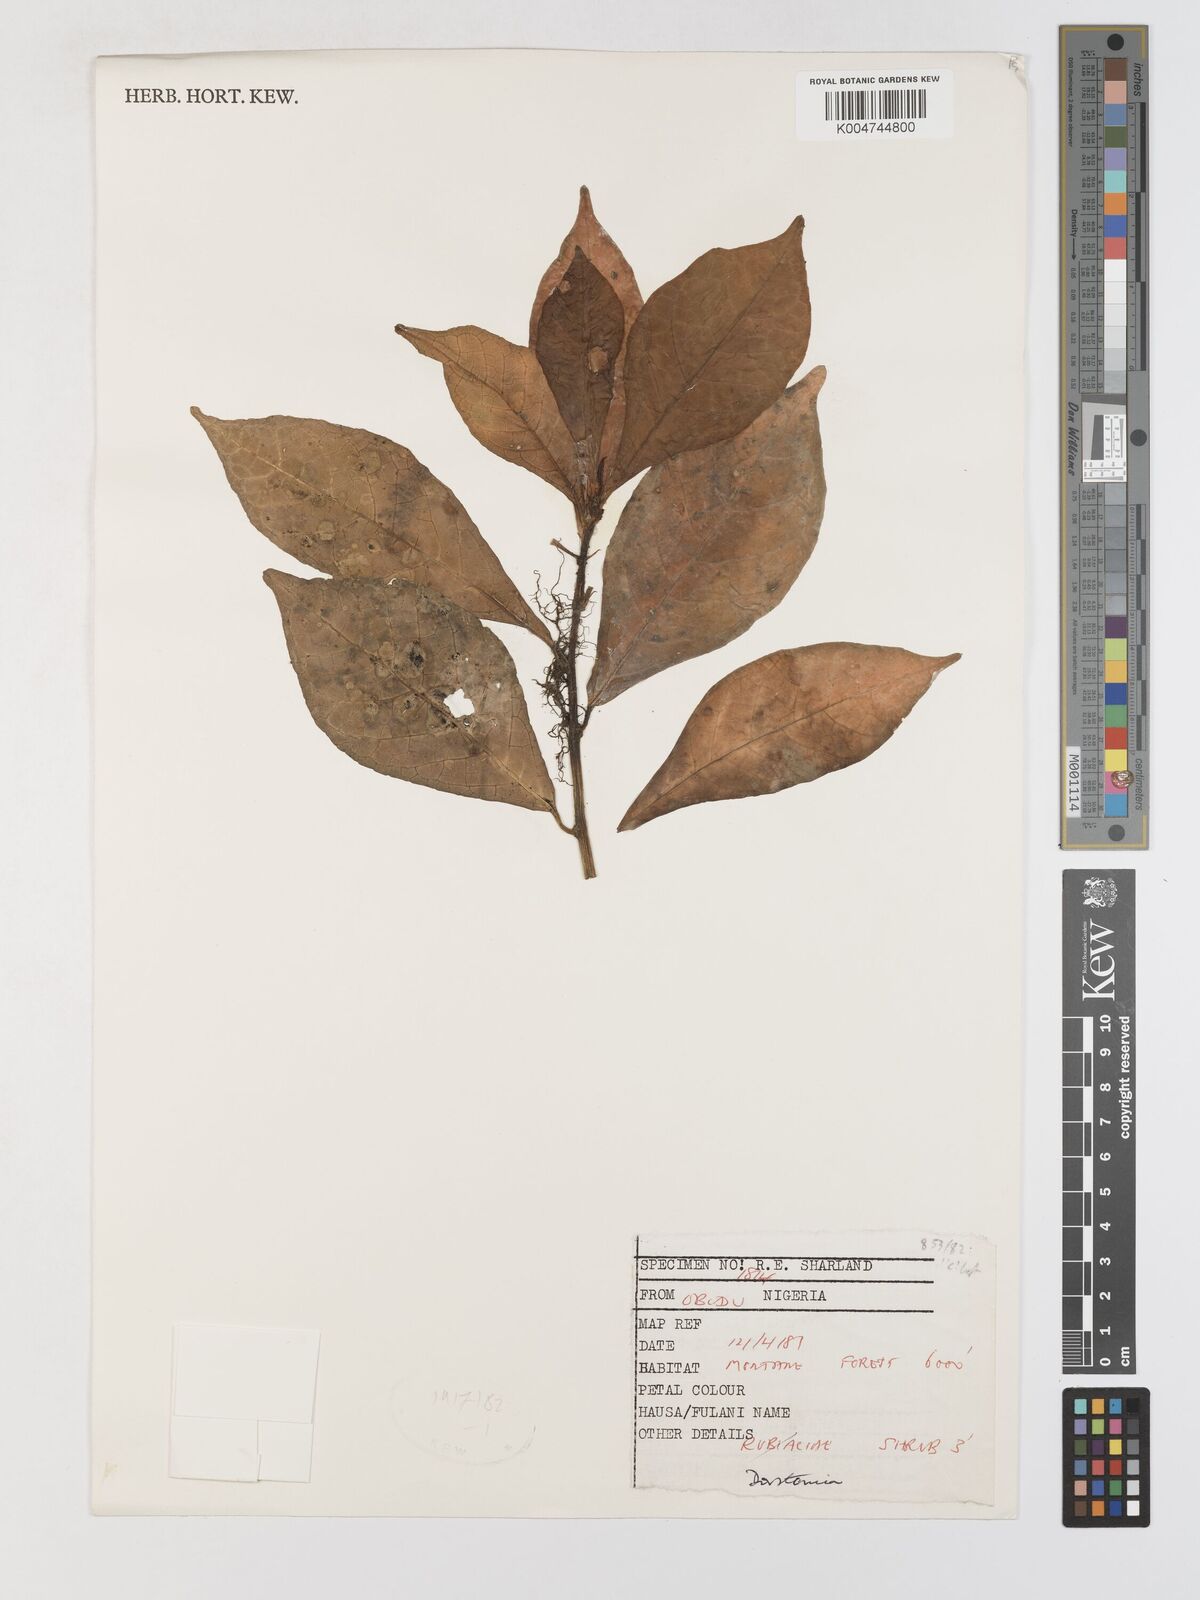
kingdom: Plantae
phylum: Tracheophyta
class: Magnoliopsida
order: Rosales
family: Moraceae
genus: Dorstenia
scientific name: Dorstenia
